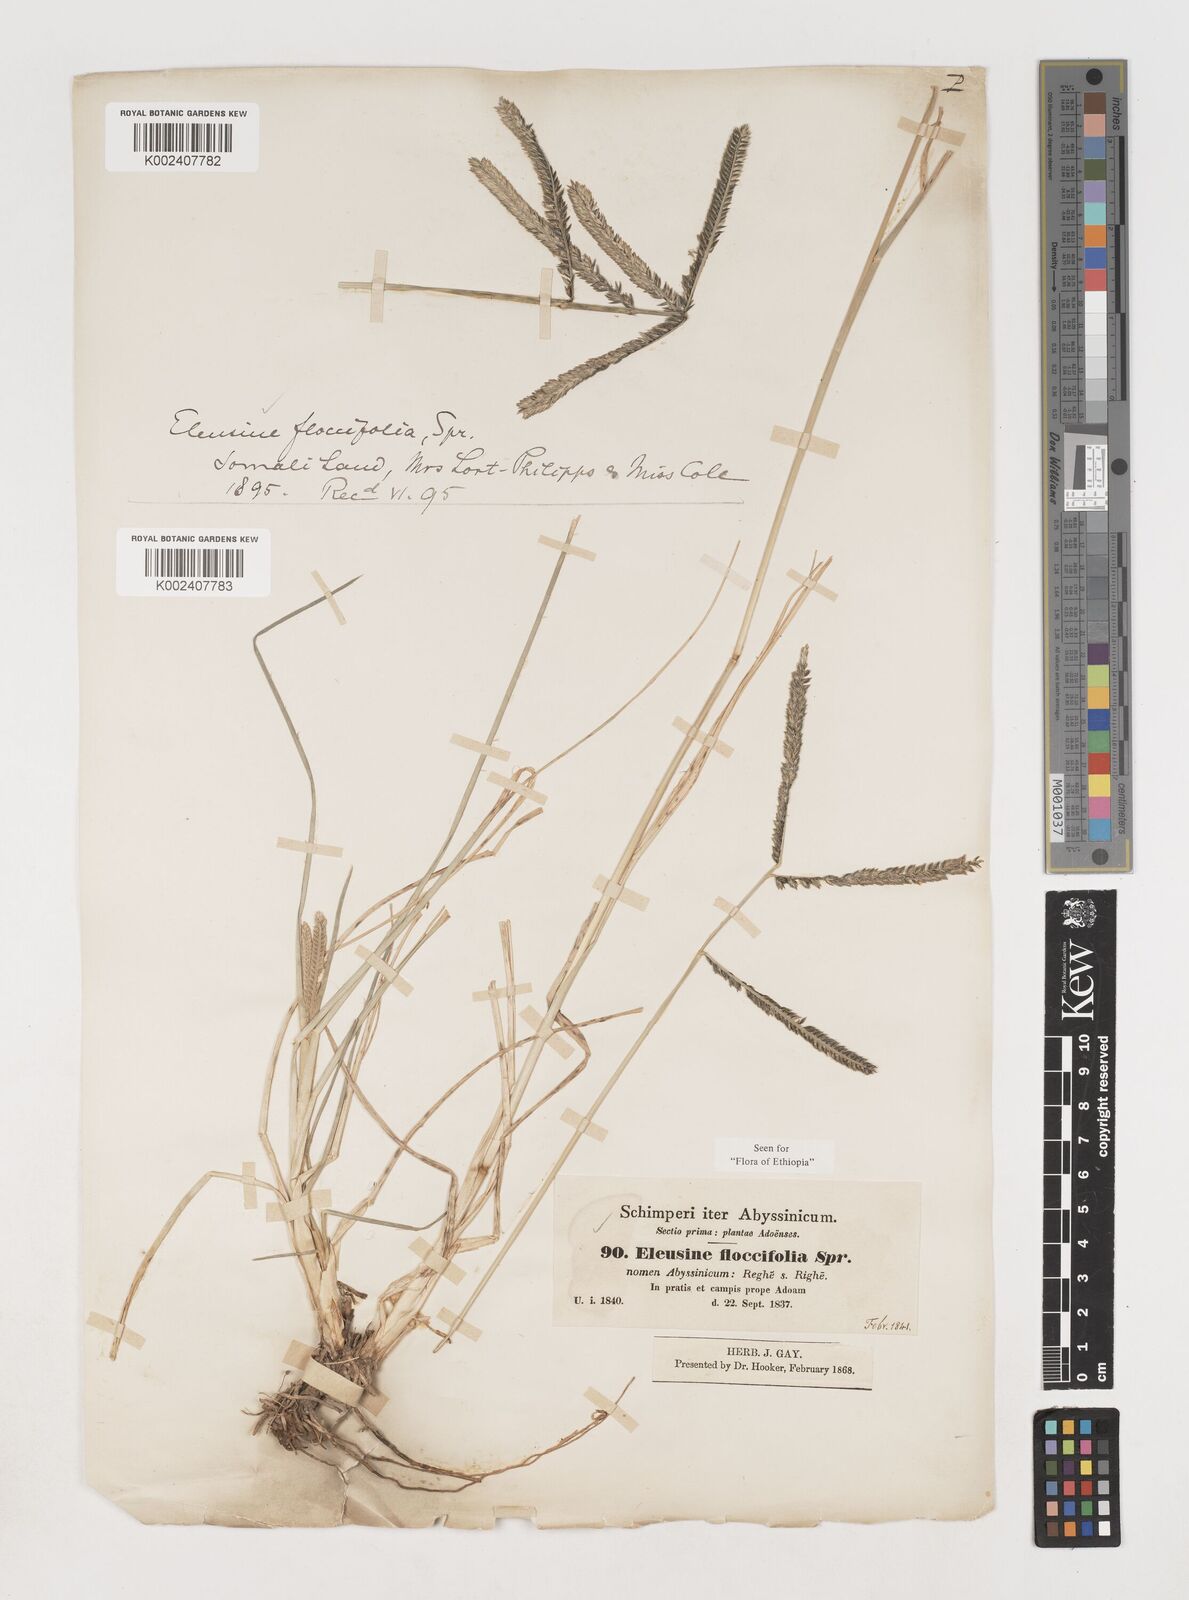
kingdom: Plantae
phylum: Tracheophyta
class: Liliopsida
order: Poales
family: Poaceae
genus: Eleusine
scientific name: Eleusine floccifolia
